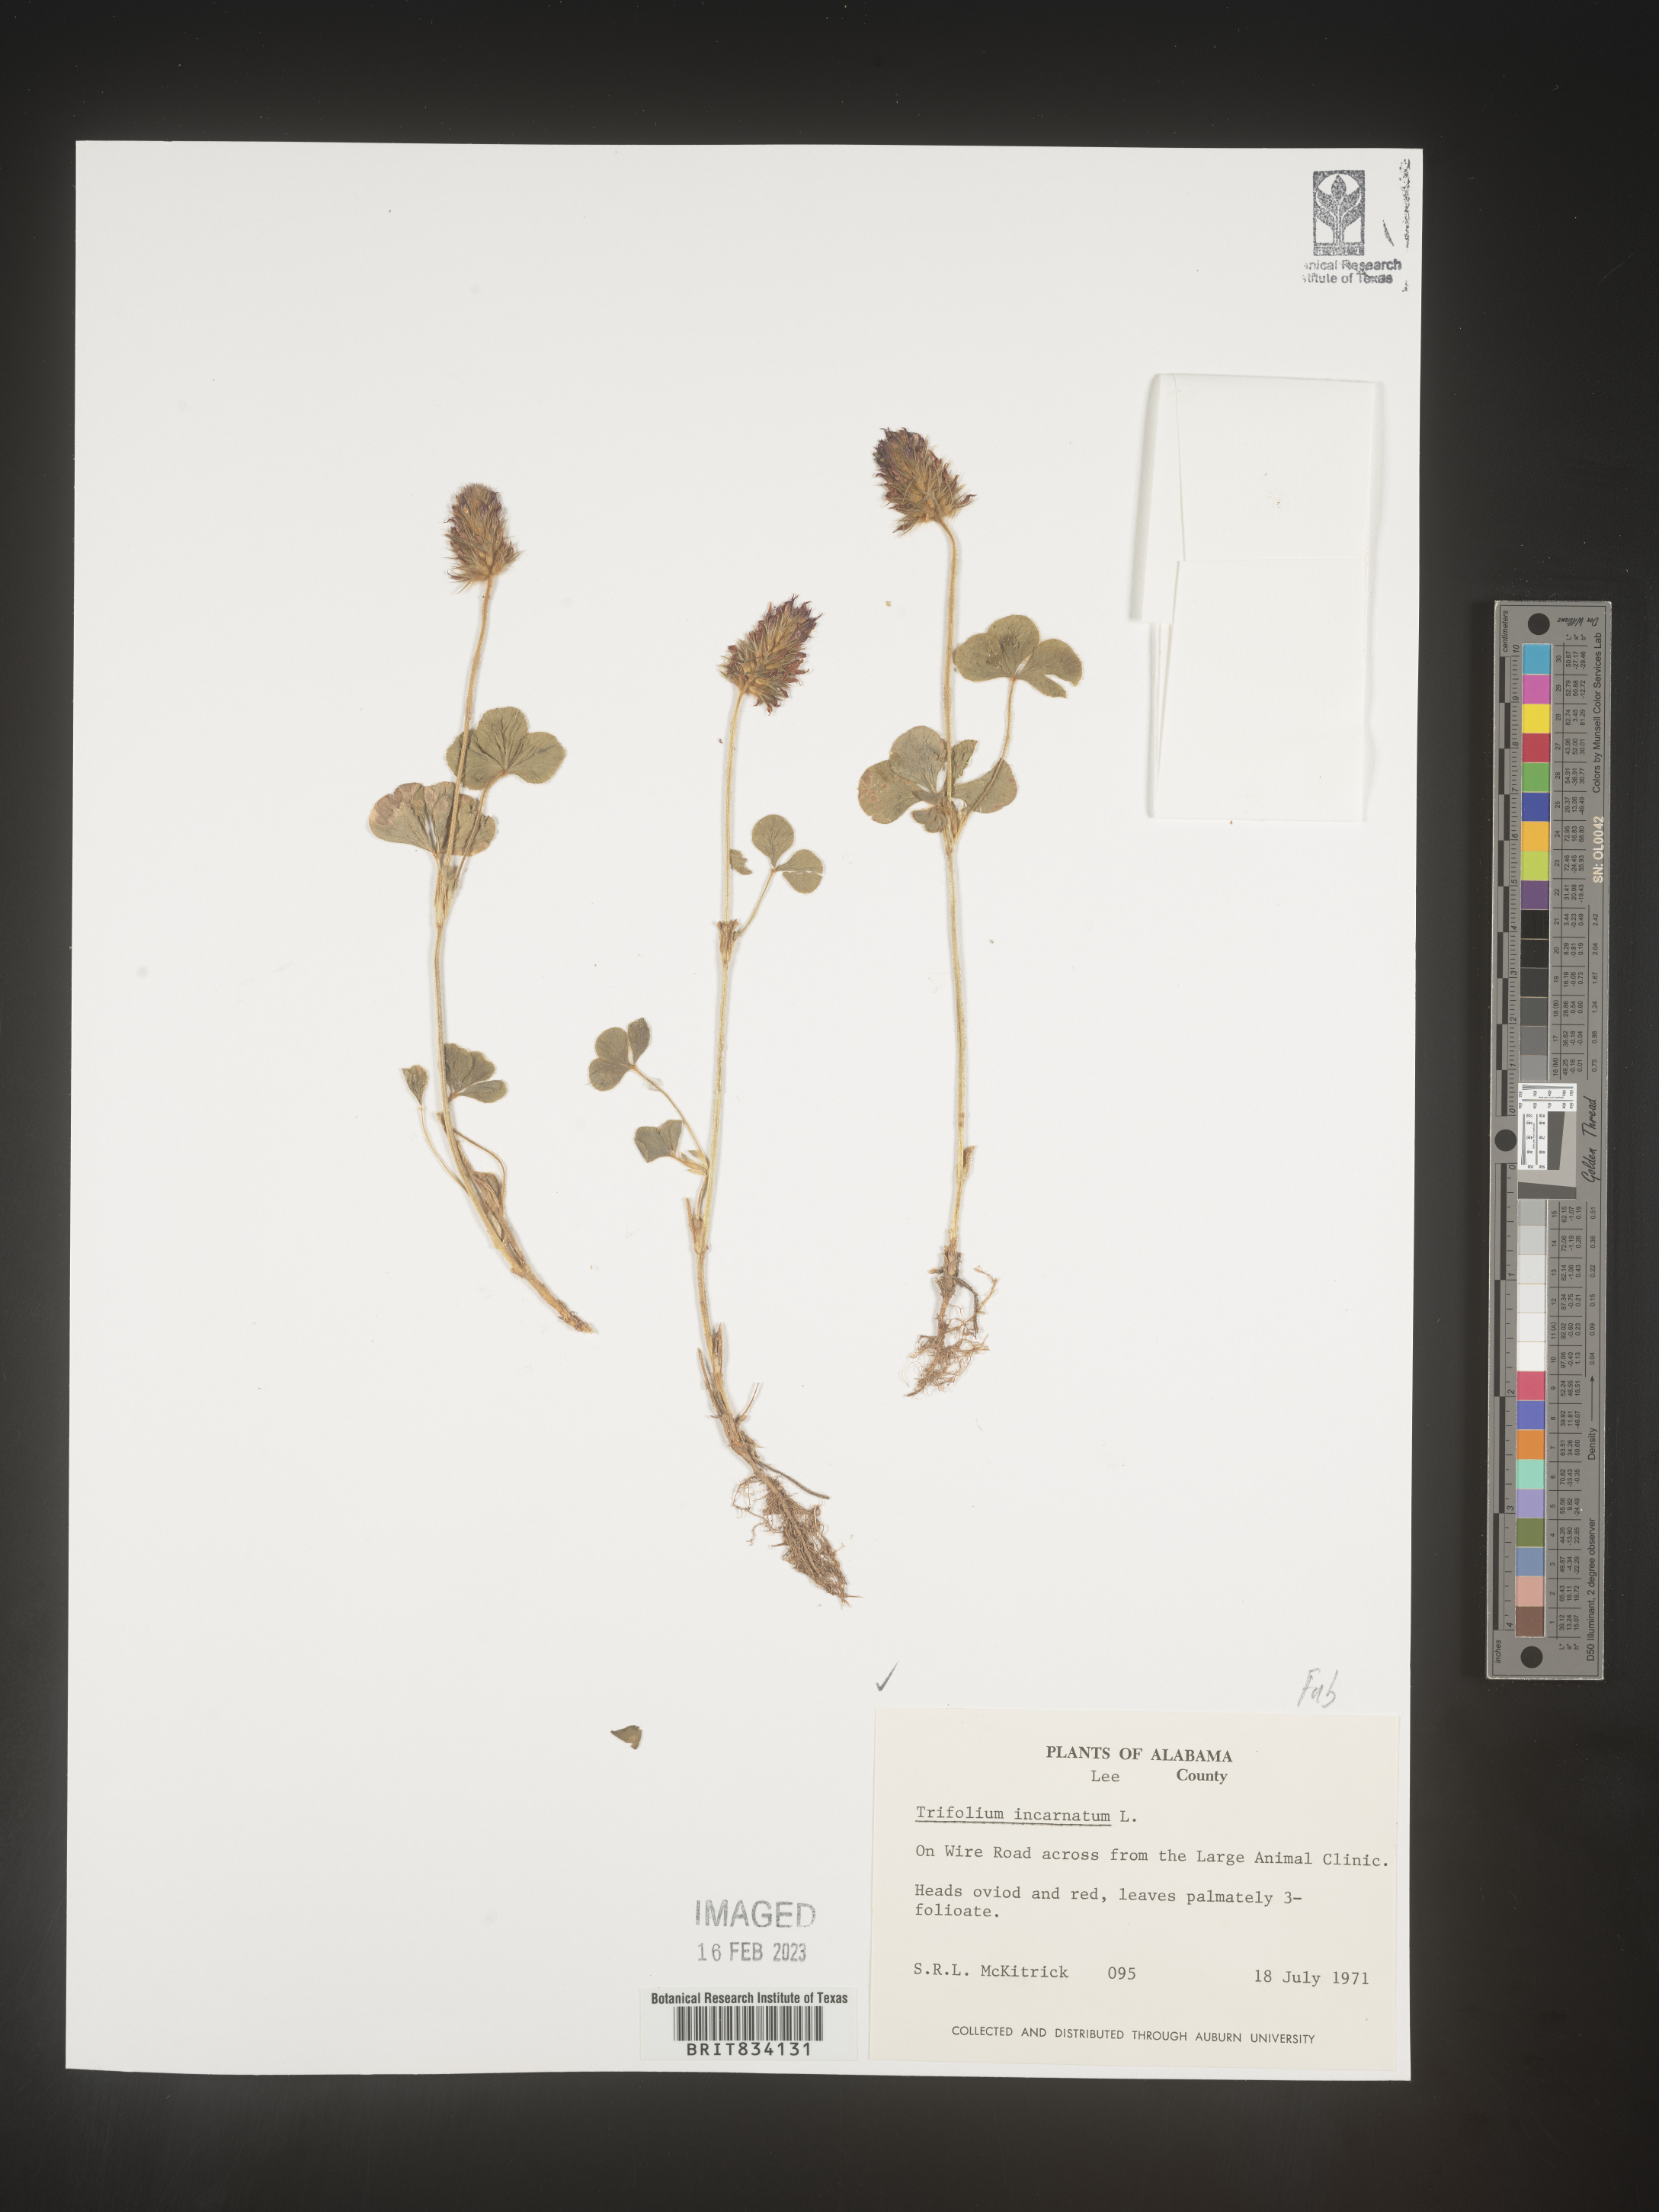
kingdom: Plantae
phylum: Tracheophyta
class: Magnoliopsida
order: Fabales
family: Fabaceae
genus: Trifolium
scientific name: Trifolium incarnatum
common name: Crimson clover
